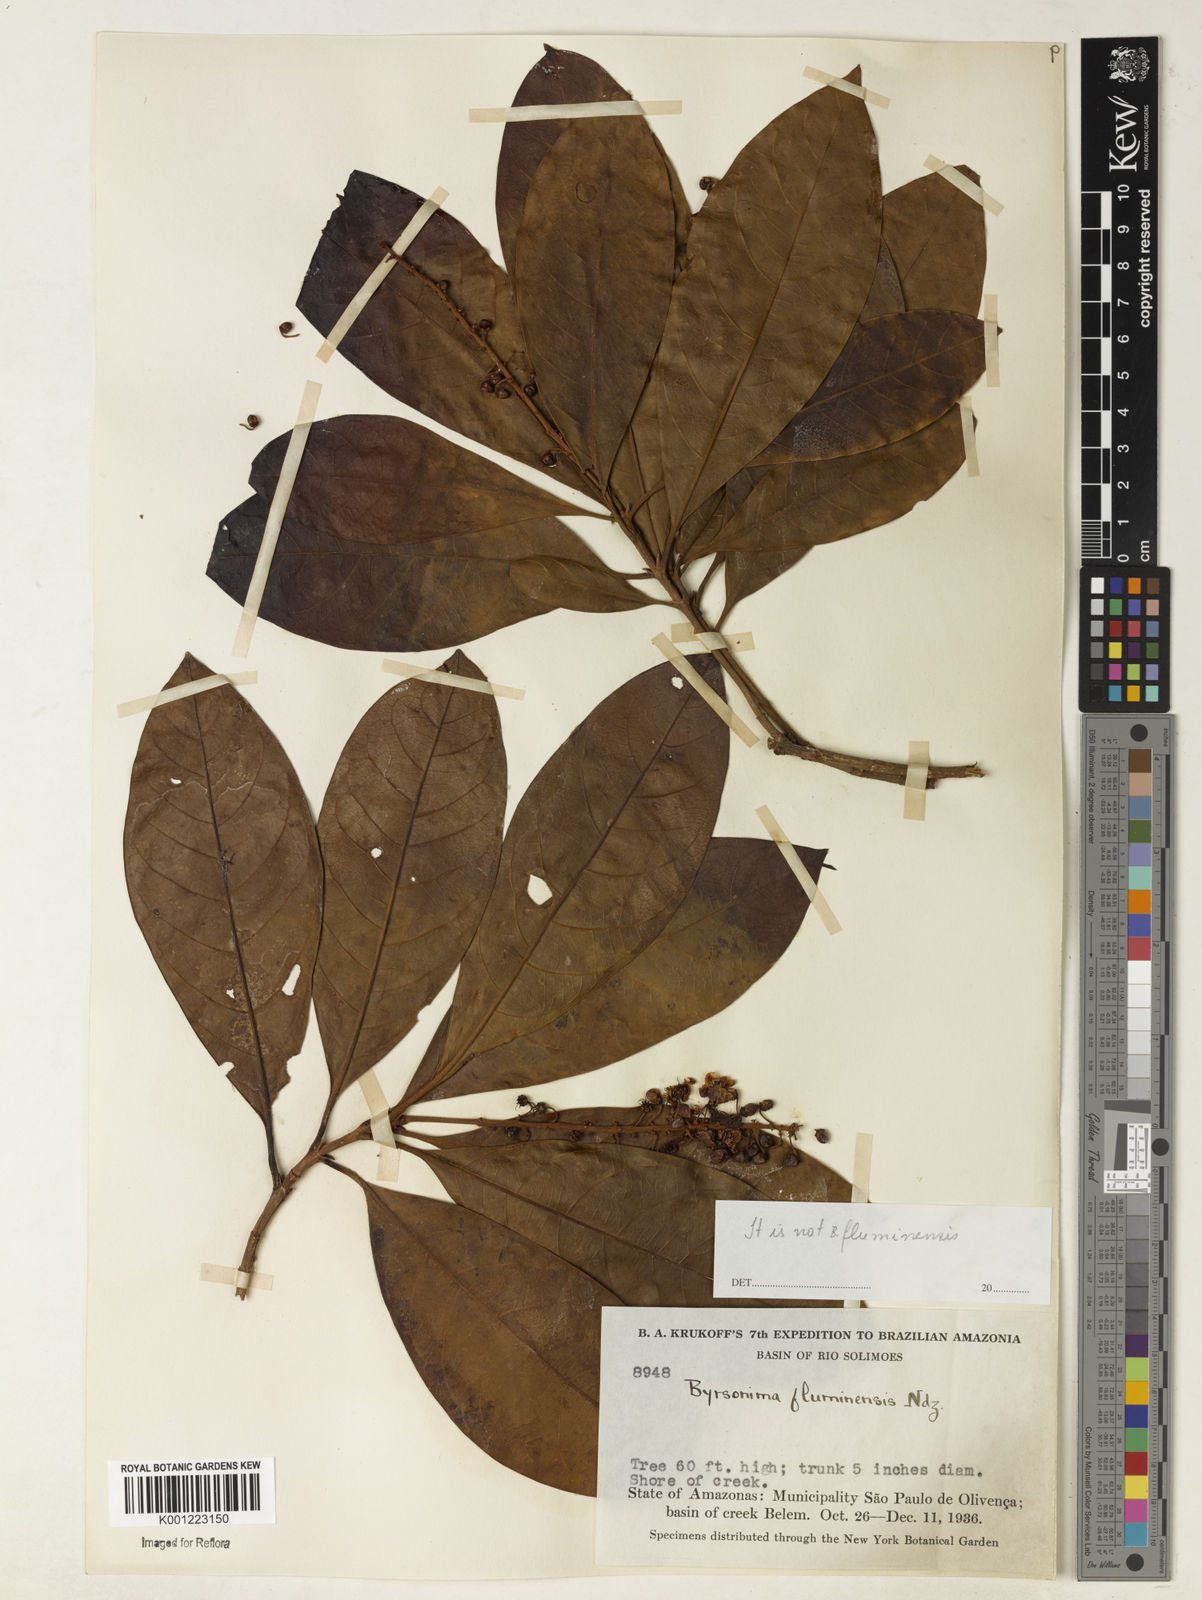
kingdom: Plantae
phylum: Tracheophyta
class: Magnoliopsida
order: Malpighiales
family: Malpighiaceae
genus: Byrsonima
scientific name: Byrsonima
